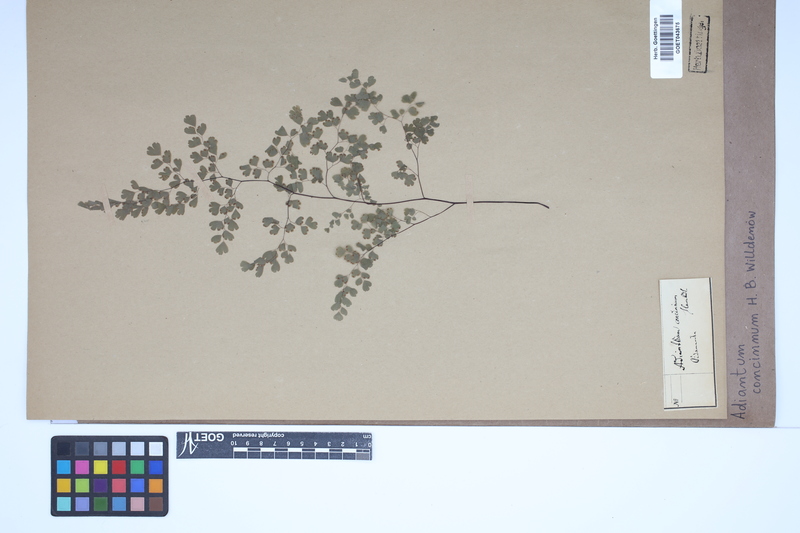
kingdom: Plantae
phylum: Tracheophyta
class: Polypodiopsida
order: Polypodiales
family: Pteridaceae
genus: Adiantum
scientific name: Adiantum concinnum
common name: Brittle maidenhair fern
